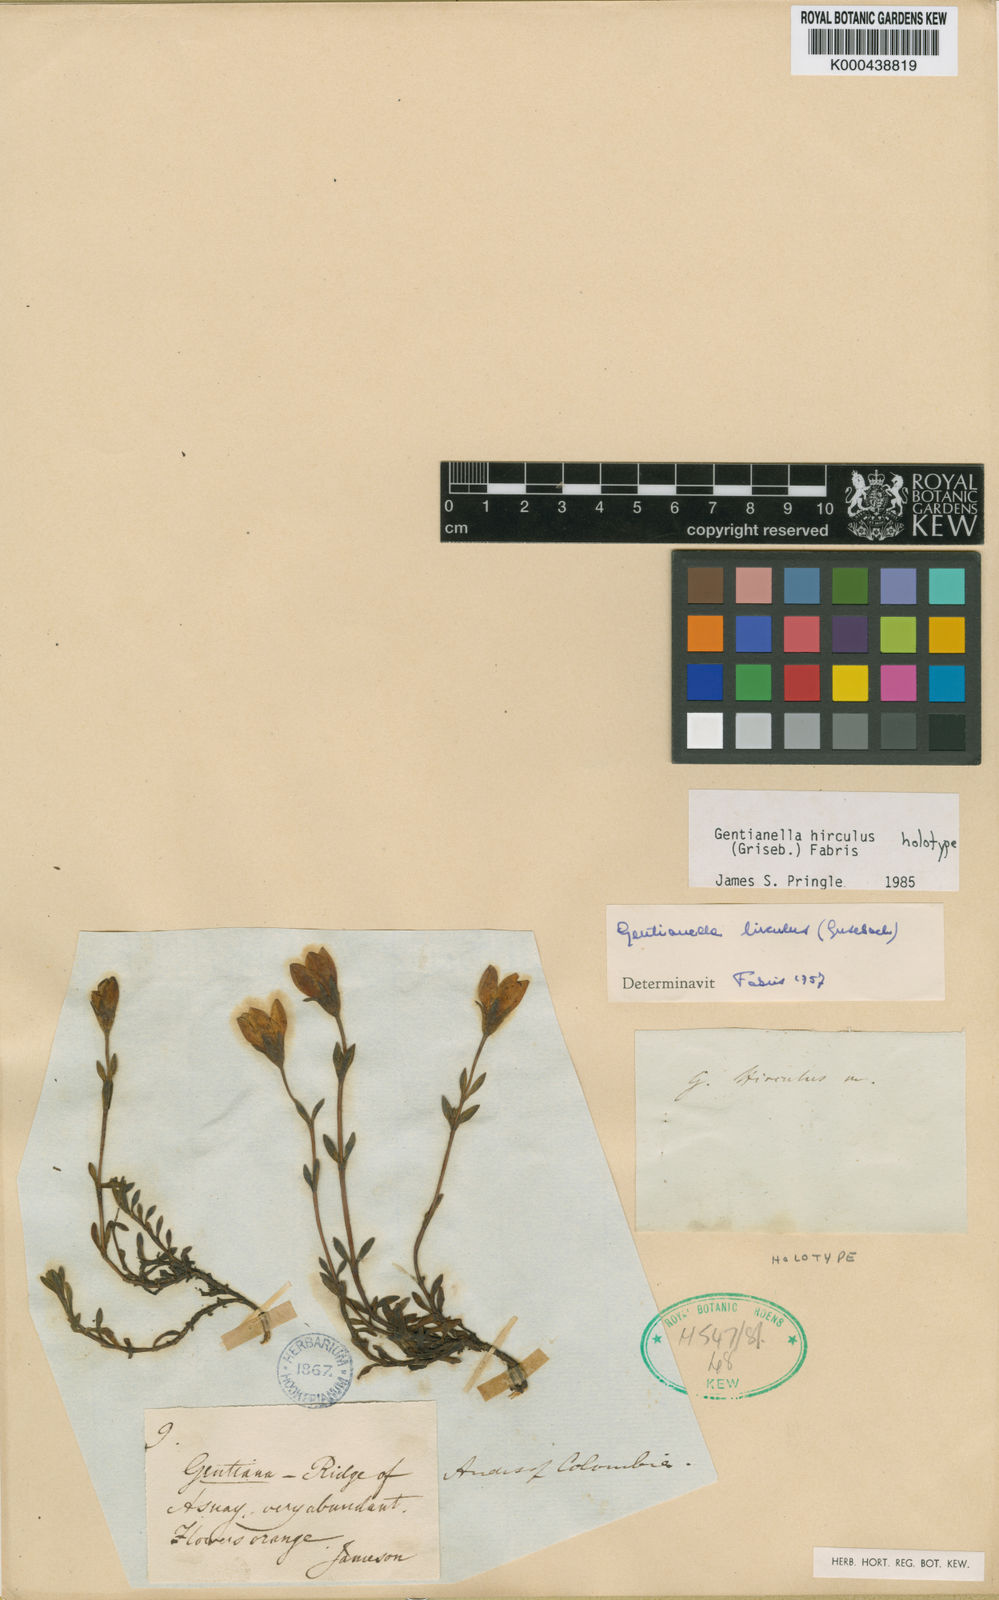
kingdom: Plantae
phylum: Tracheophyta
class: Magnoliopsida
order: Gentianales
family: Gentianaceae
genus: Gentianella
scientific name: Gentianella hirculus
